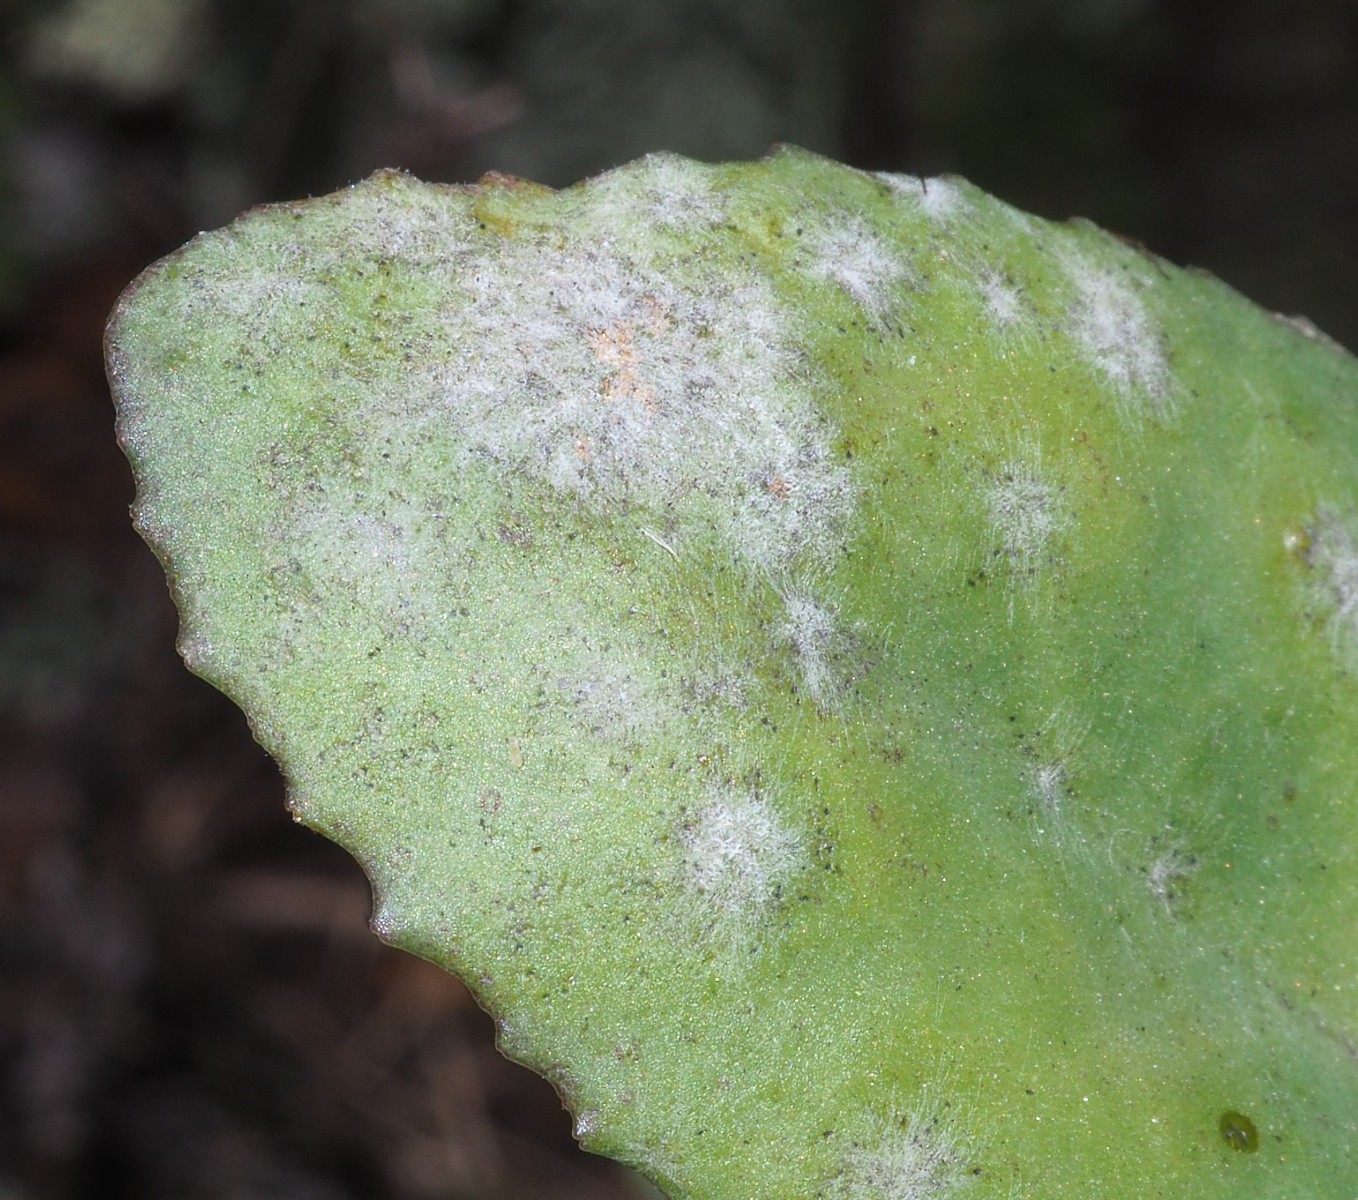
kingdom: Fungi
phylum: Ascomycota
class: Leotiomycetes
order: Helotiales
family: Erysiphaceae
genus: Erysiphe
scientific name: Erysiphe sedi
